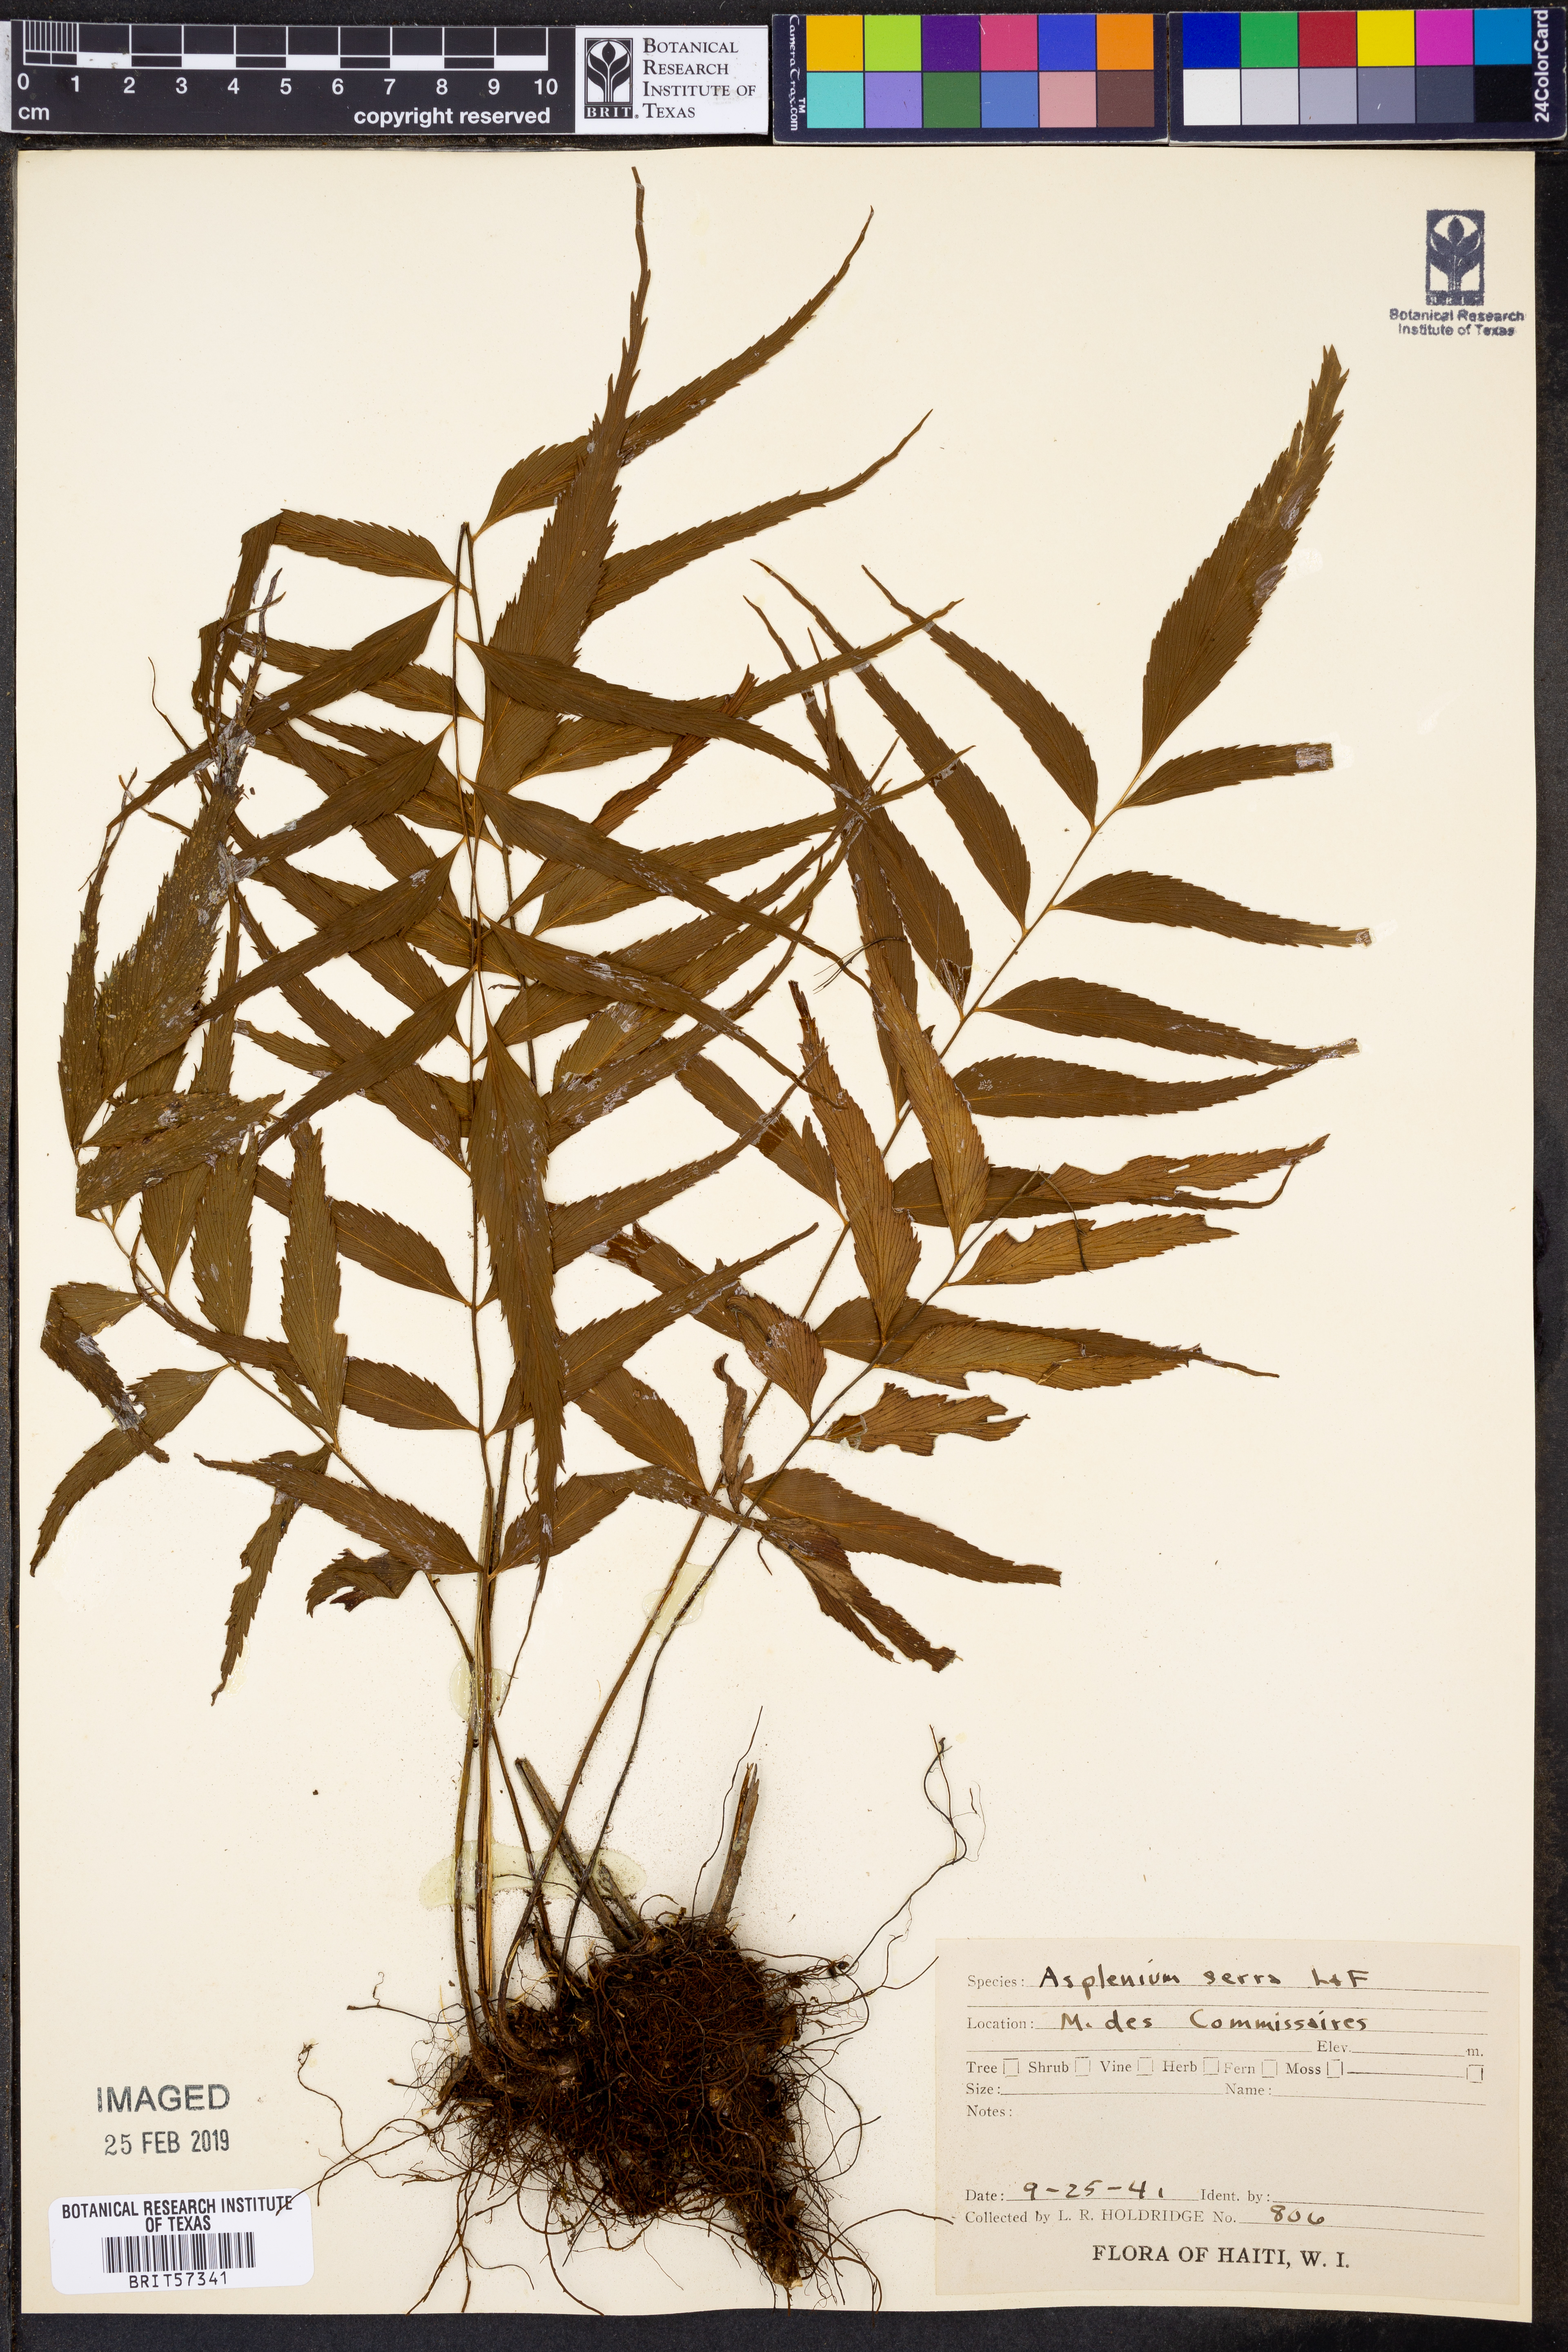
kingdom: Plantae
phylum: Tracheophyta
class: Polypodiopsida
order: Polypodiales
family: Aspleniaceae
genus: Asplenium
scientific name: Asplenium serra
